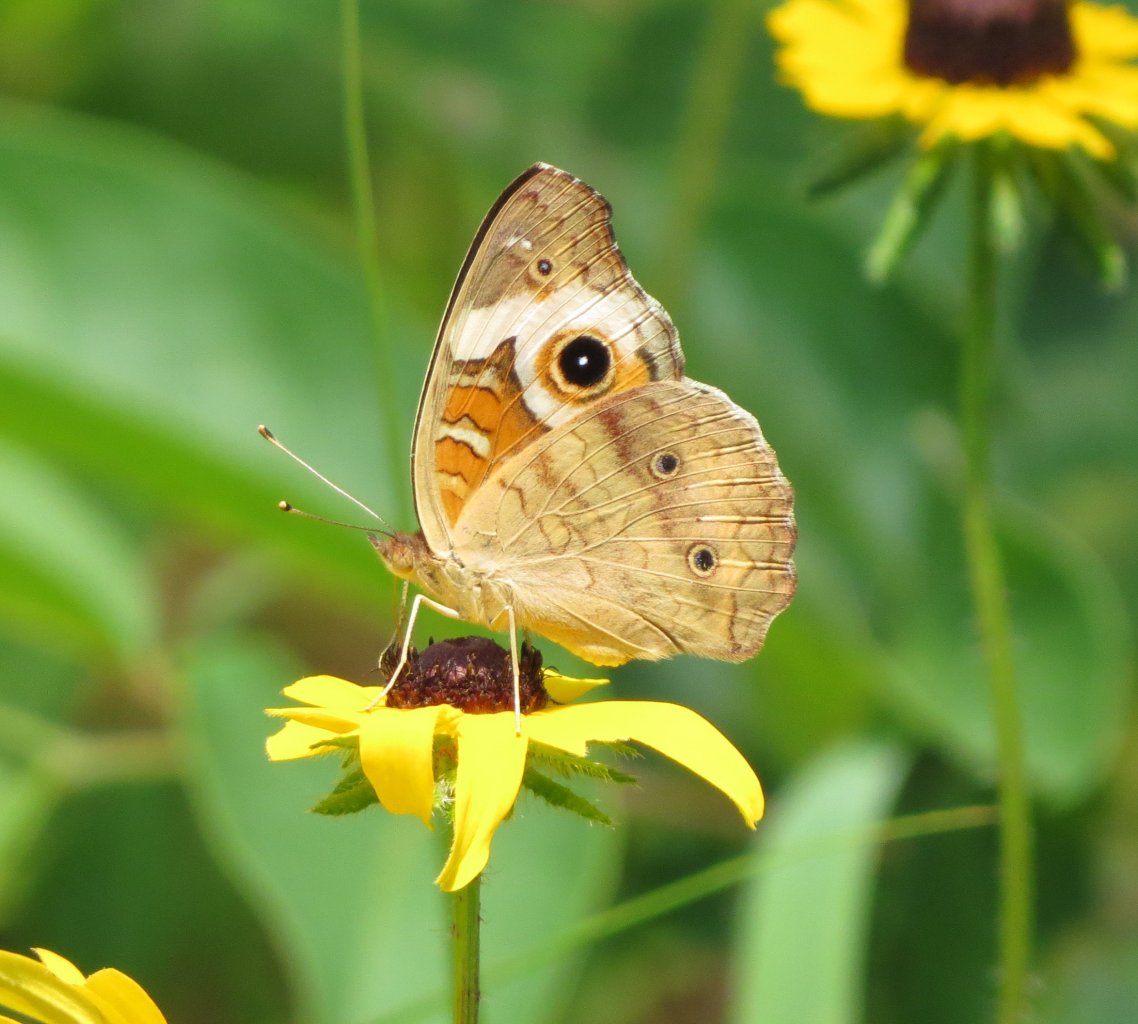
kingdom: Animalia
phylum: Arthropoda
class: Insecta
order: Lepidoptera
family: Nymphalidae
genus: Junonia
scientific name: Junonia coenia
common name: Common Buckeye
